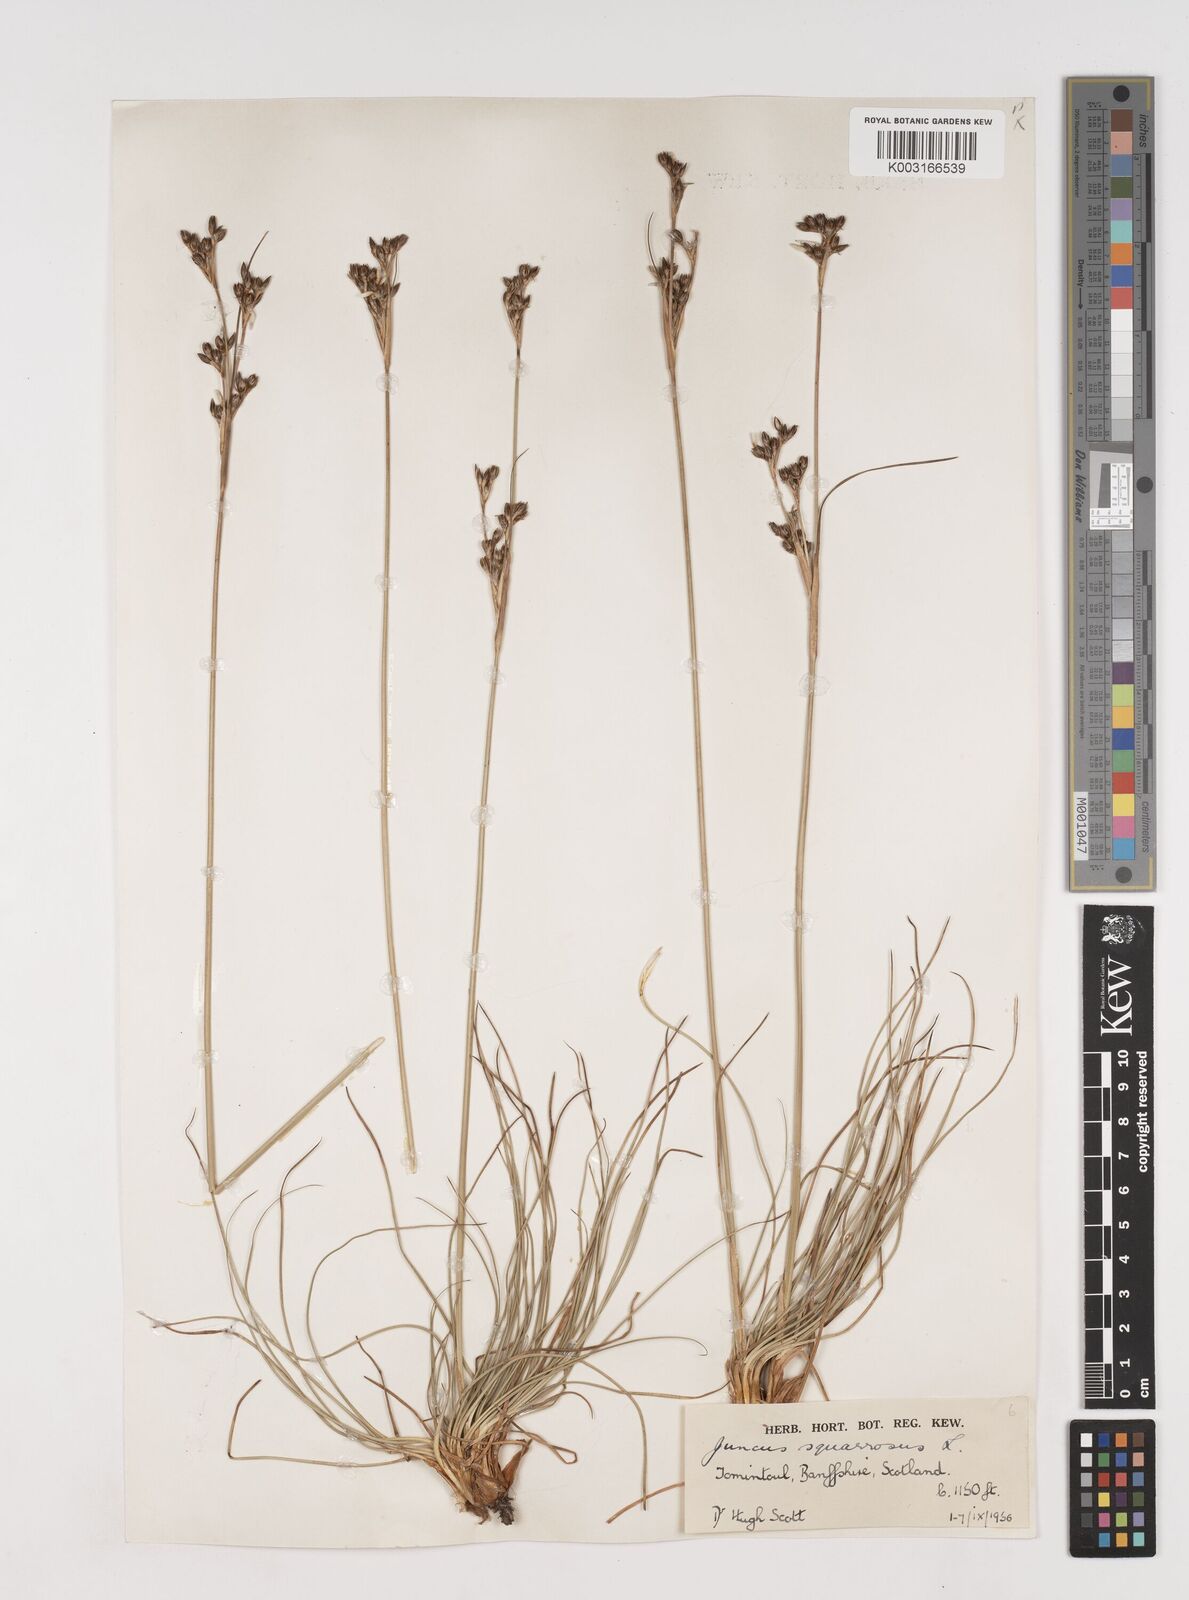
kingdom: Plantae
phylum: Tracheophyta
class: Liliopsida
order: Poales
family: Juncaceae
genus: Juncus
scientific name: Juncus squarrosus
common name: Heath rush
